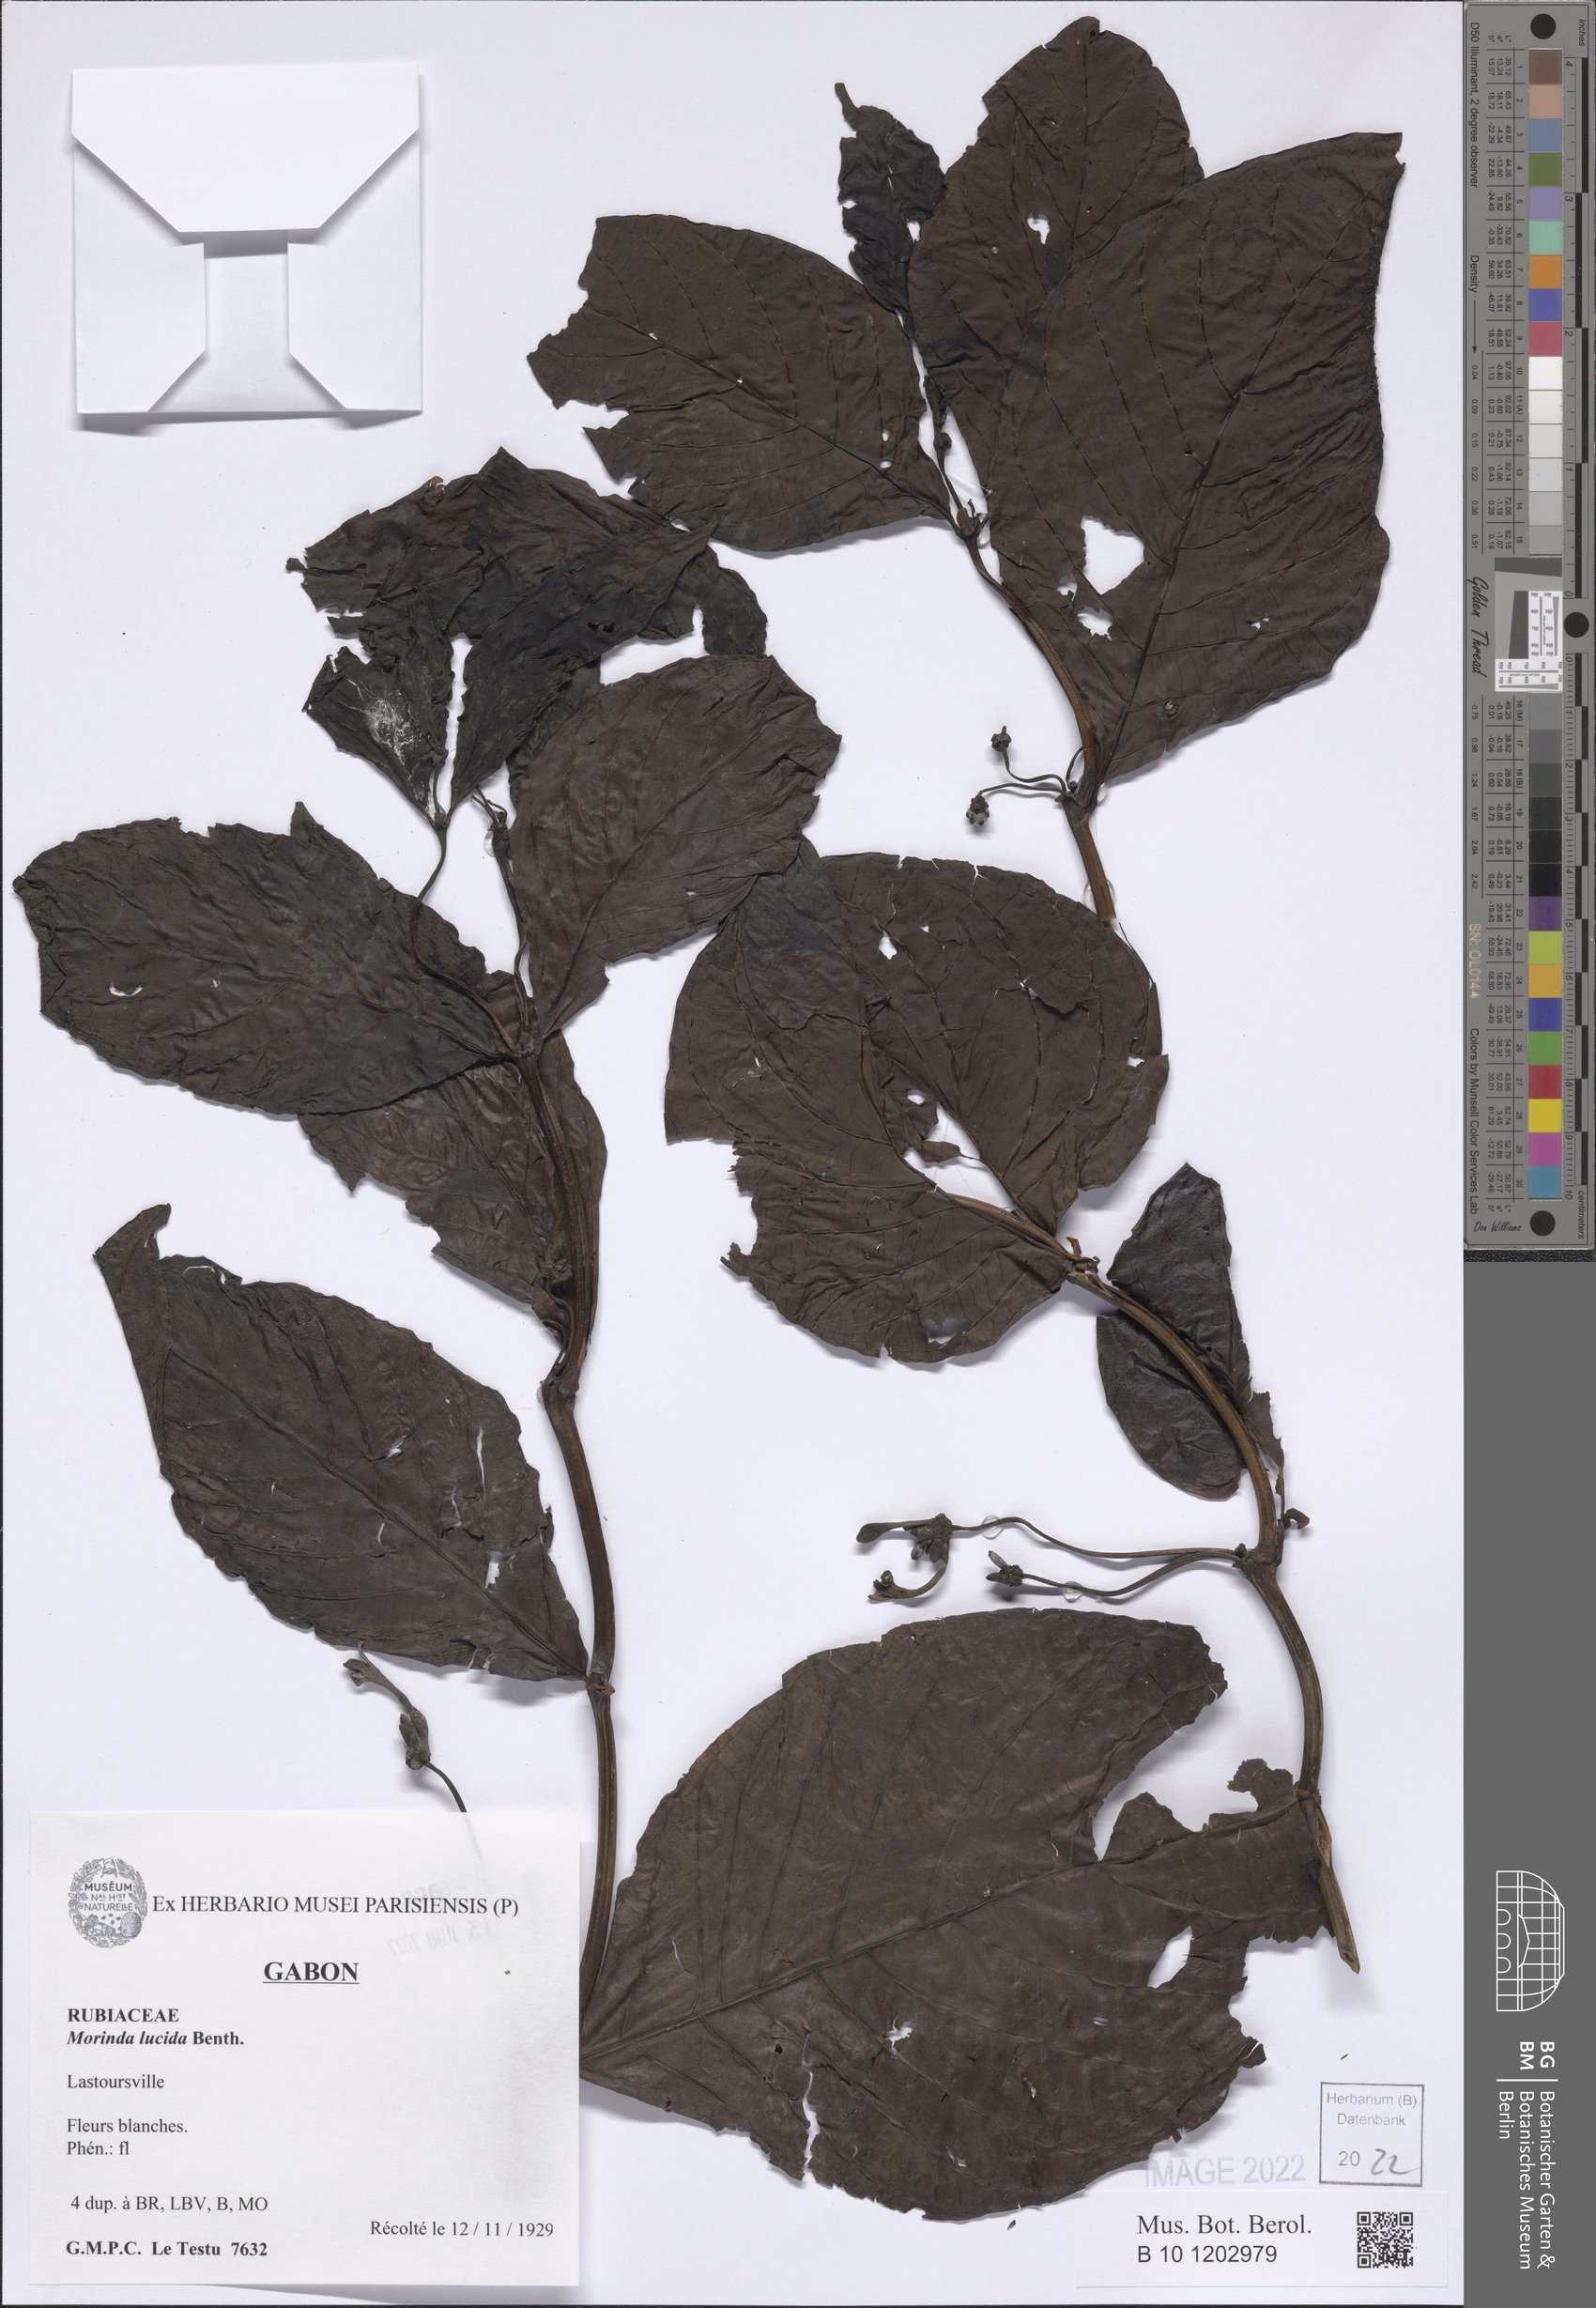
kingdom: Plantae
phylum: Tracheophyta
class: Magnoliopsida
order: Gentianales
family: Rubiaceae
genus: Morinda
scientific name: Morinda lucida
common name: Brimstonetree
